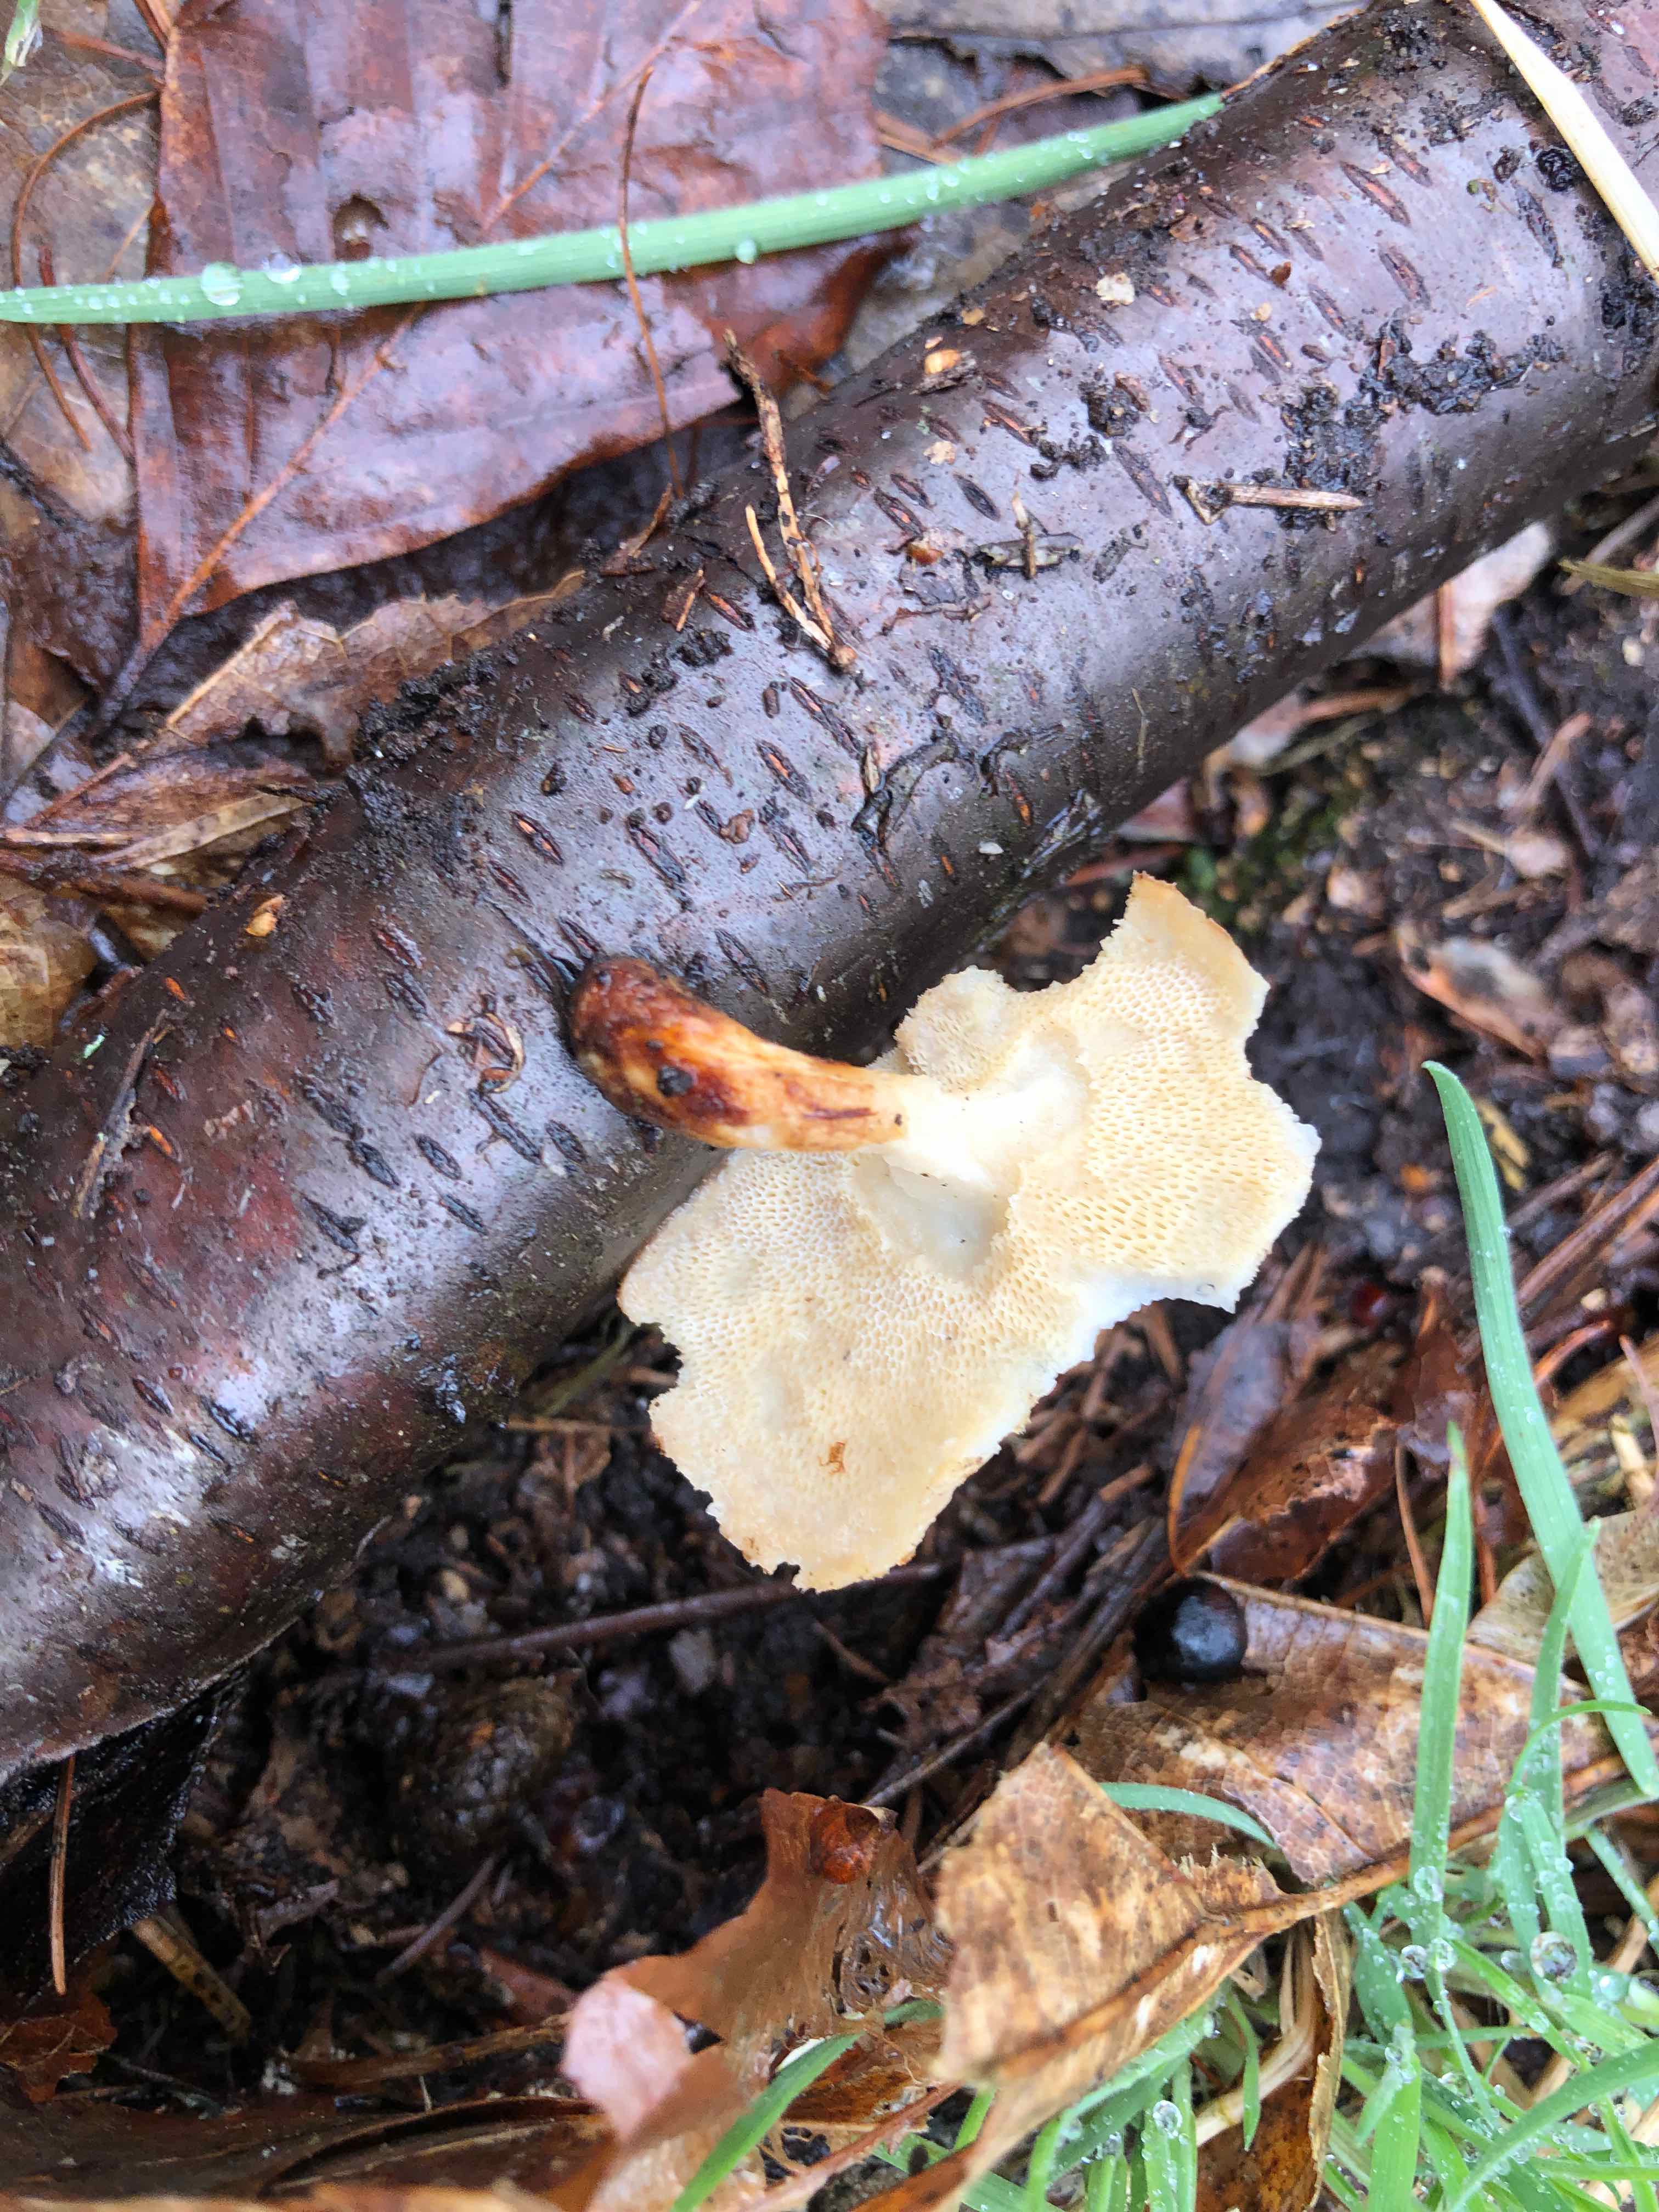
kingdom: Fungi
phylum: Basidiomycota
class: Agaricomycetes
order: Polyporales
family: Polyporaceae
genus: Lentinus
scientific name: Lentinus brumalis
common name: vinter-stilkporesvamp
